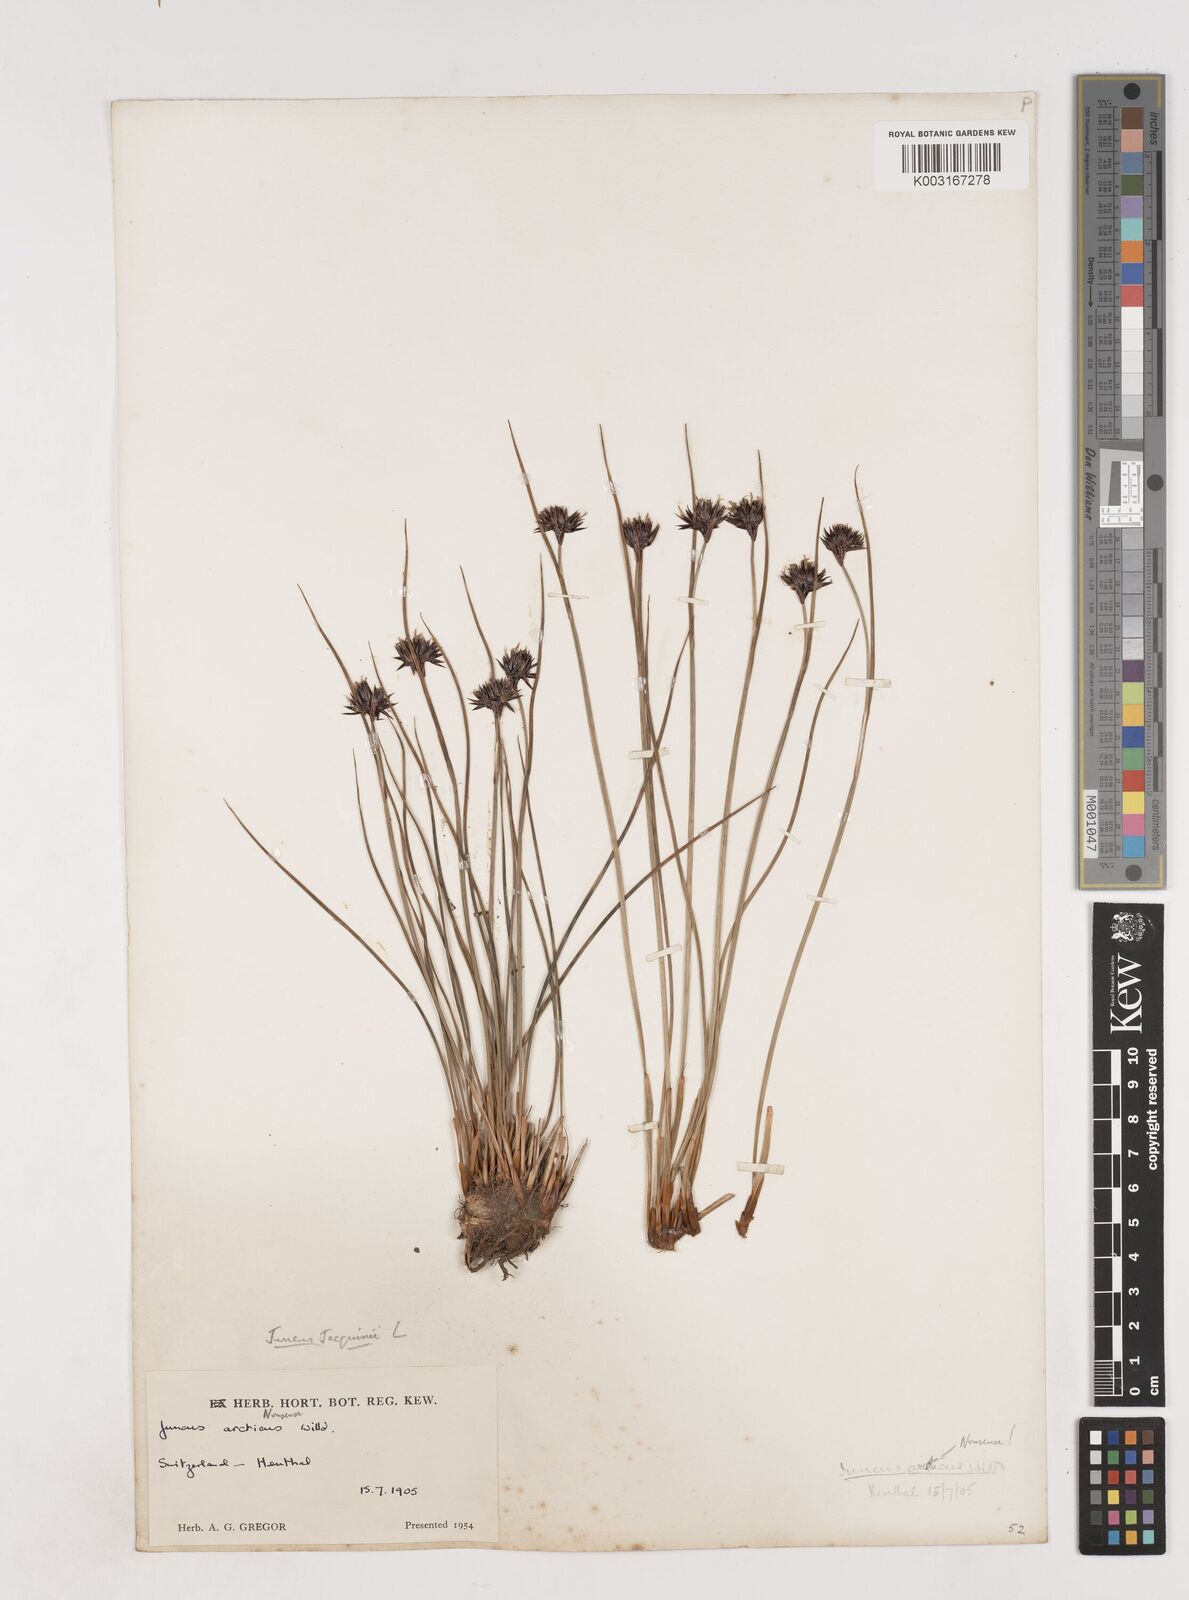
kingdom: Plantae
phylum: Tracheophyta
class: Liliopsida
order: Poales
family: Juncaceae
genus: Juncus
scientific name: Juncus jacquinii
